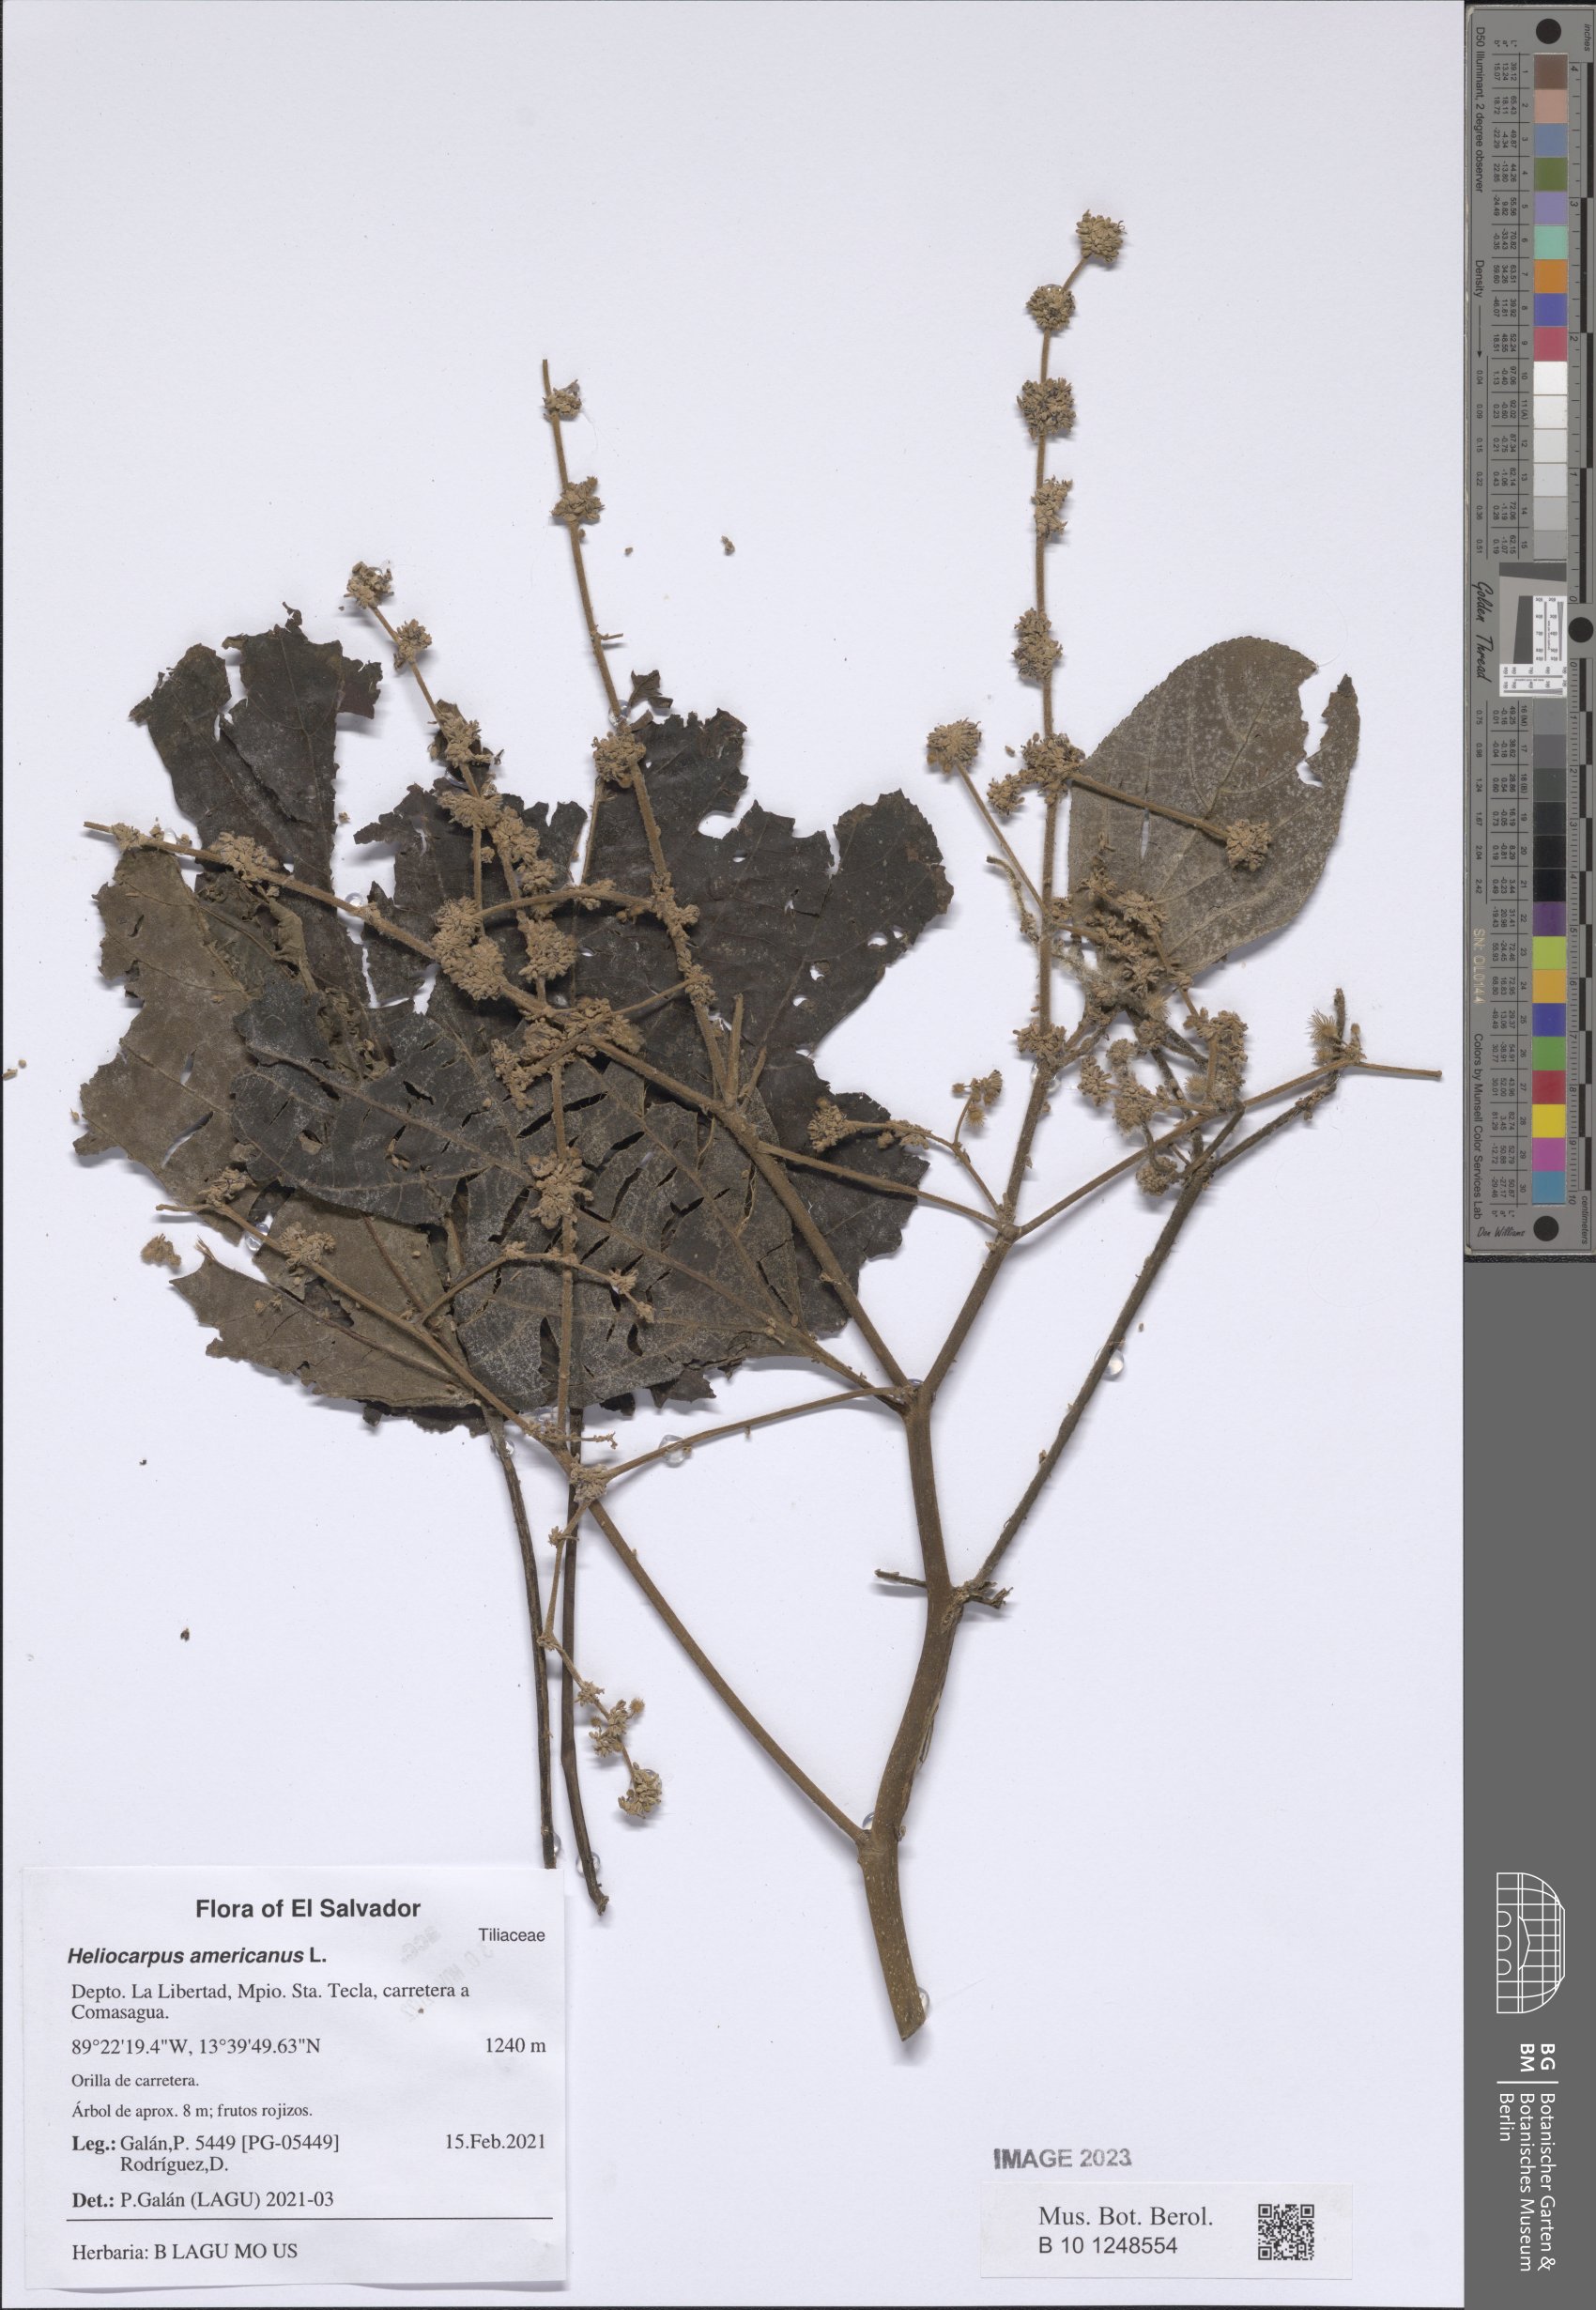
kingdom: Plantae
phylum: Tracheophyta
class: Magnoliopsida
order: Malvales
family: Thymelaeaceae
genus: Daphnopsis
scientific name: Daphnopsis monocephala
